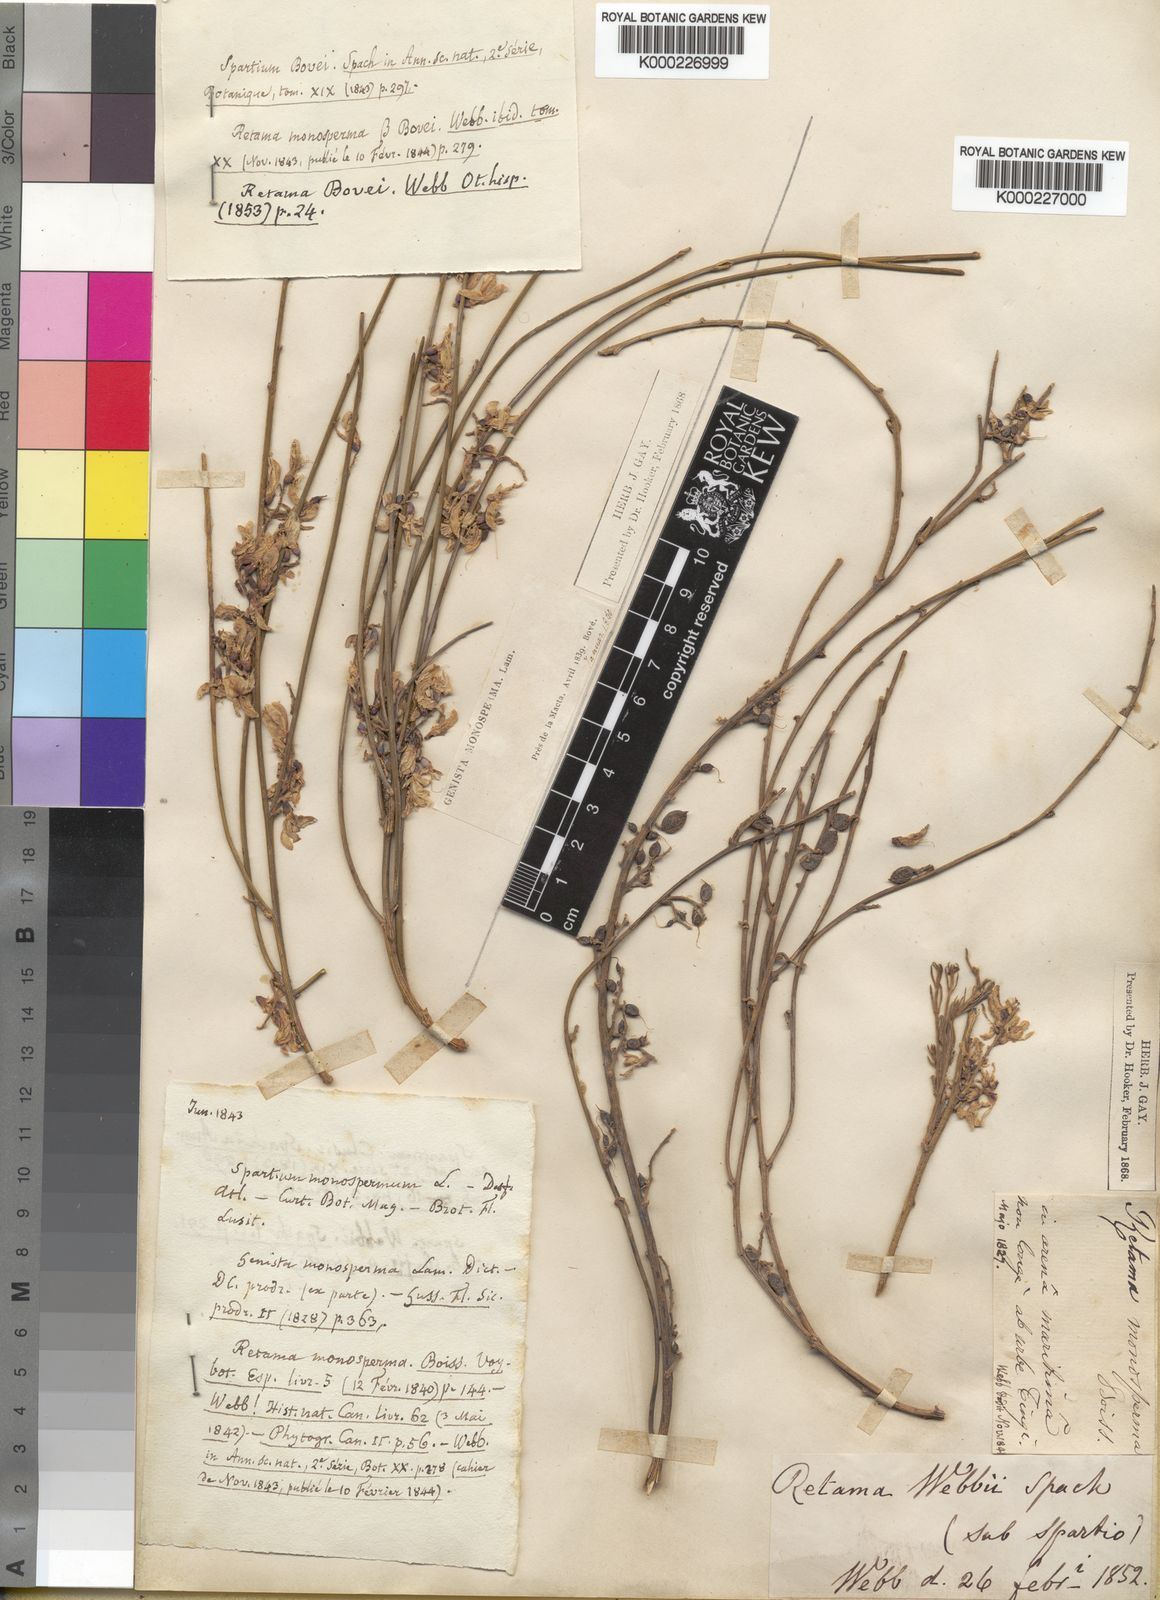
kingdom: Plantae
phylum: Tracheophyta
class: Magnoliopsida
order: Fabales
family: Fabaceae
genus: Retama
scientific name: Retama monosperma
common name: Bridal broom
